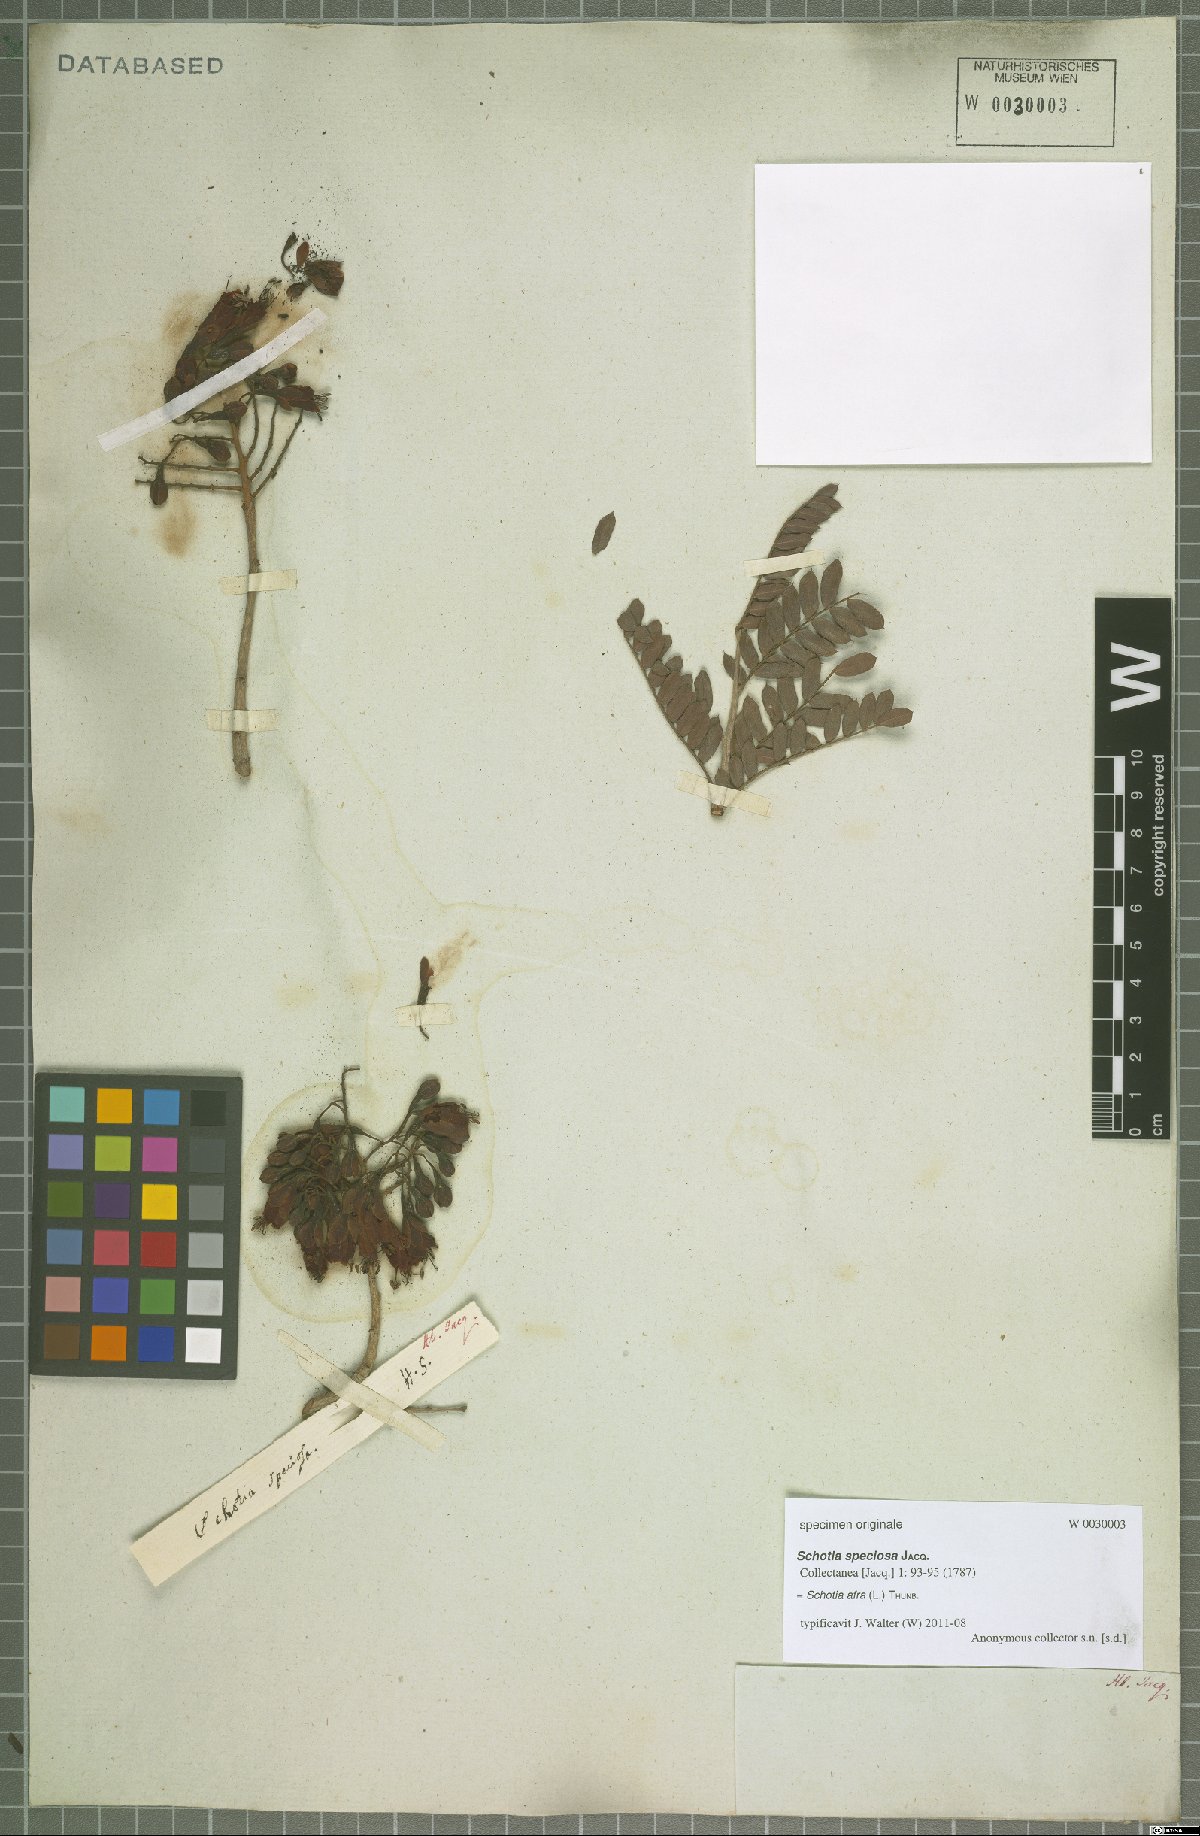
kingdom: Plantae
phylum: Tracheophyta
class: Magnoliopsida
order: Fabales
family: Fabaceae
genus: Schotia
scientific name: Schotia afra
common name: Hottentot's bean
